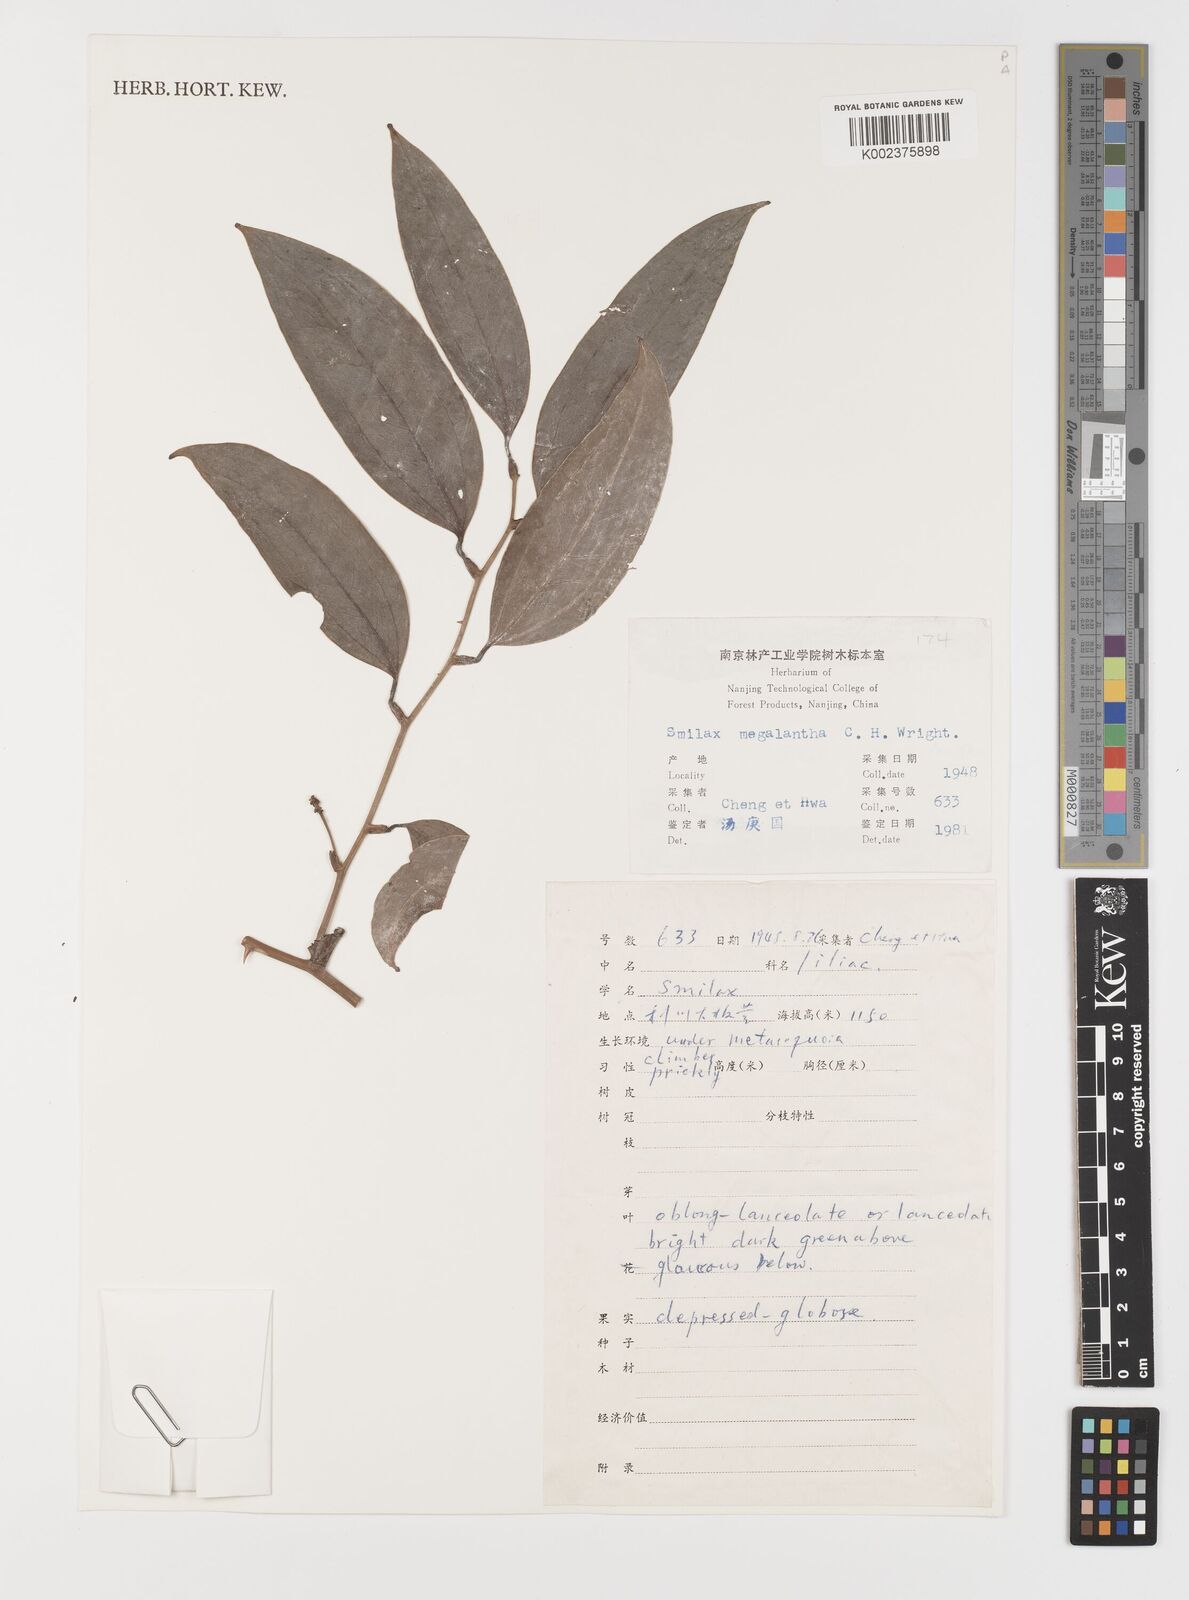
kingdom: Plantae
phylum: Tracheophyta
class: Liliopsida
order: Liliales
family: Smilacaceae
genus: Smilax
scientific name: Smilax megalantha
